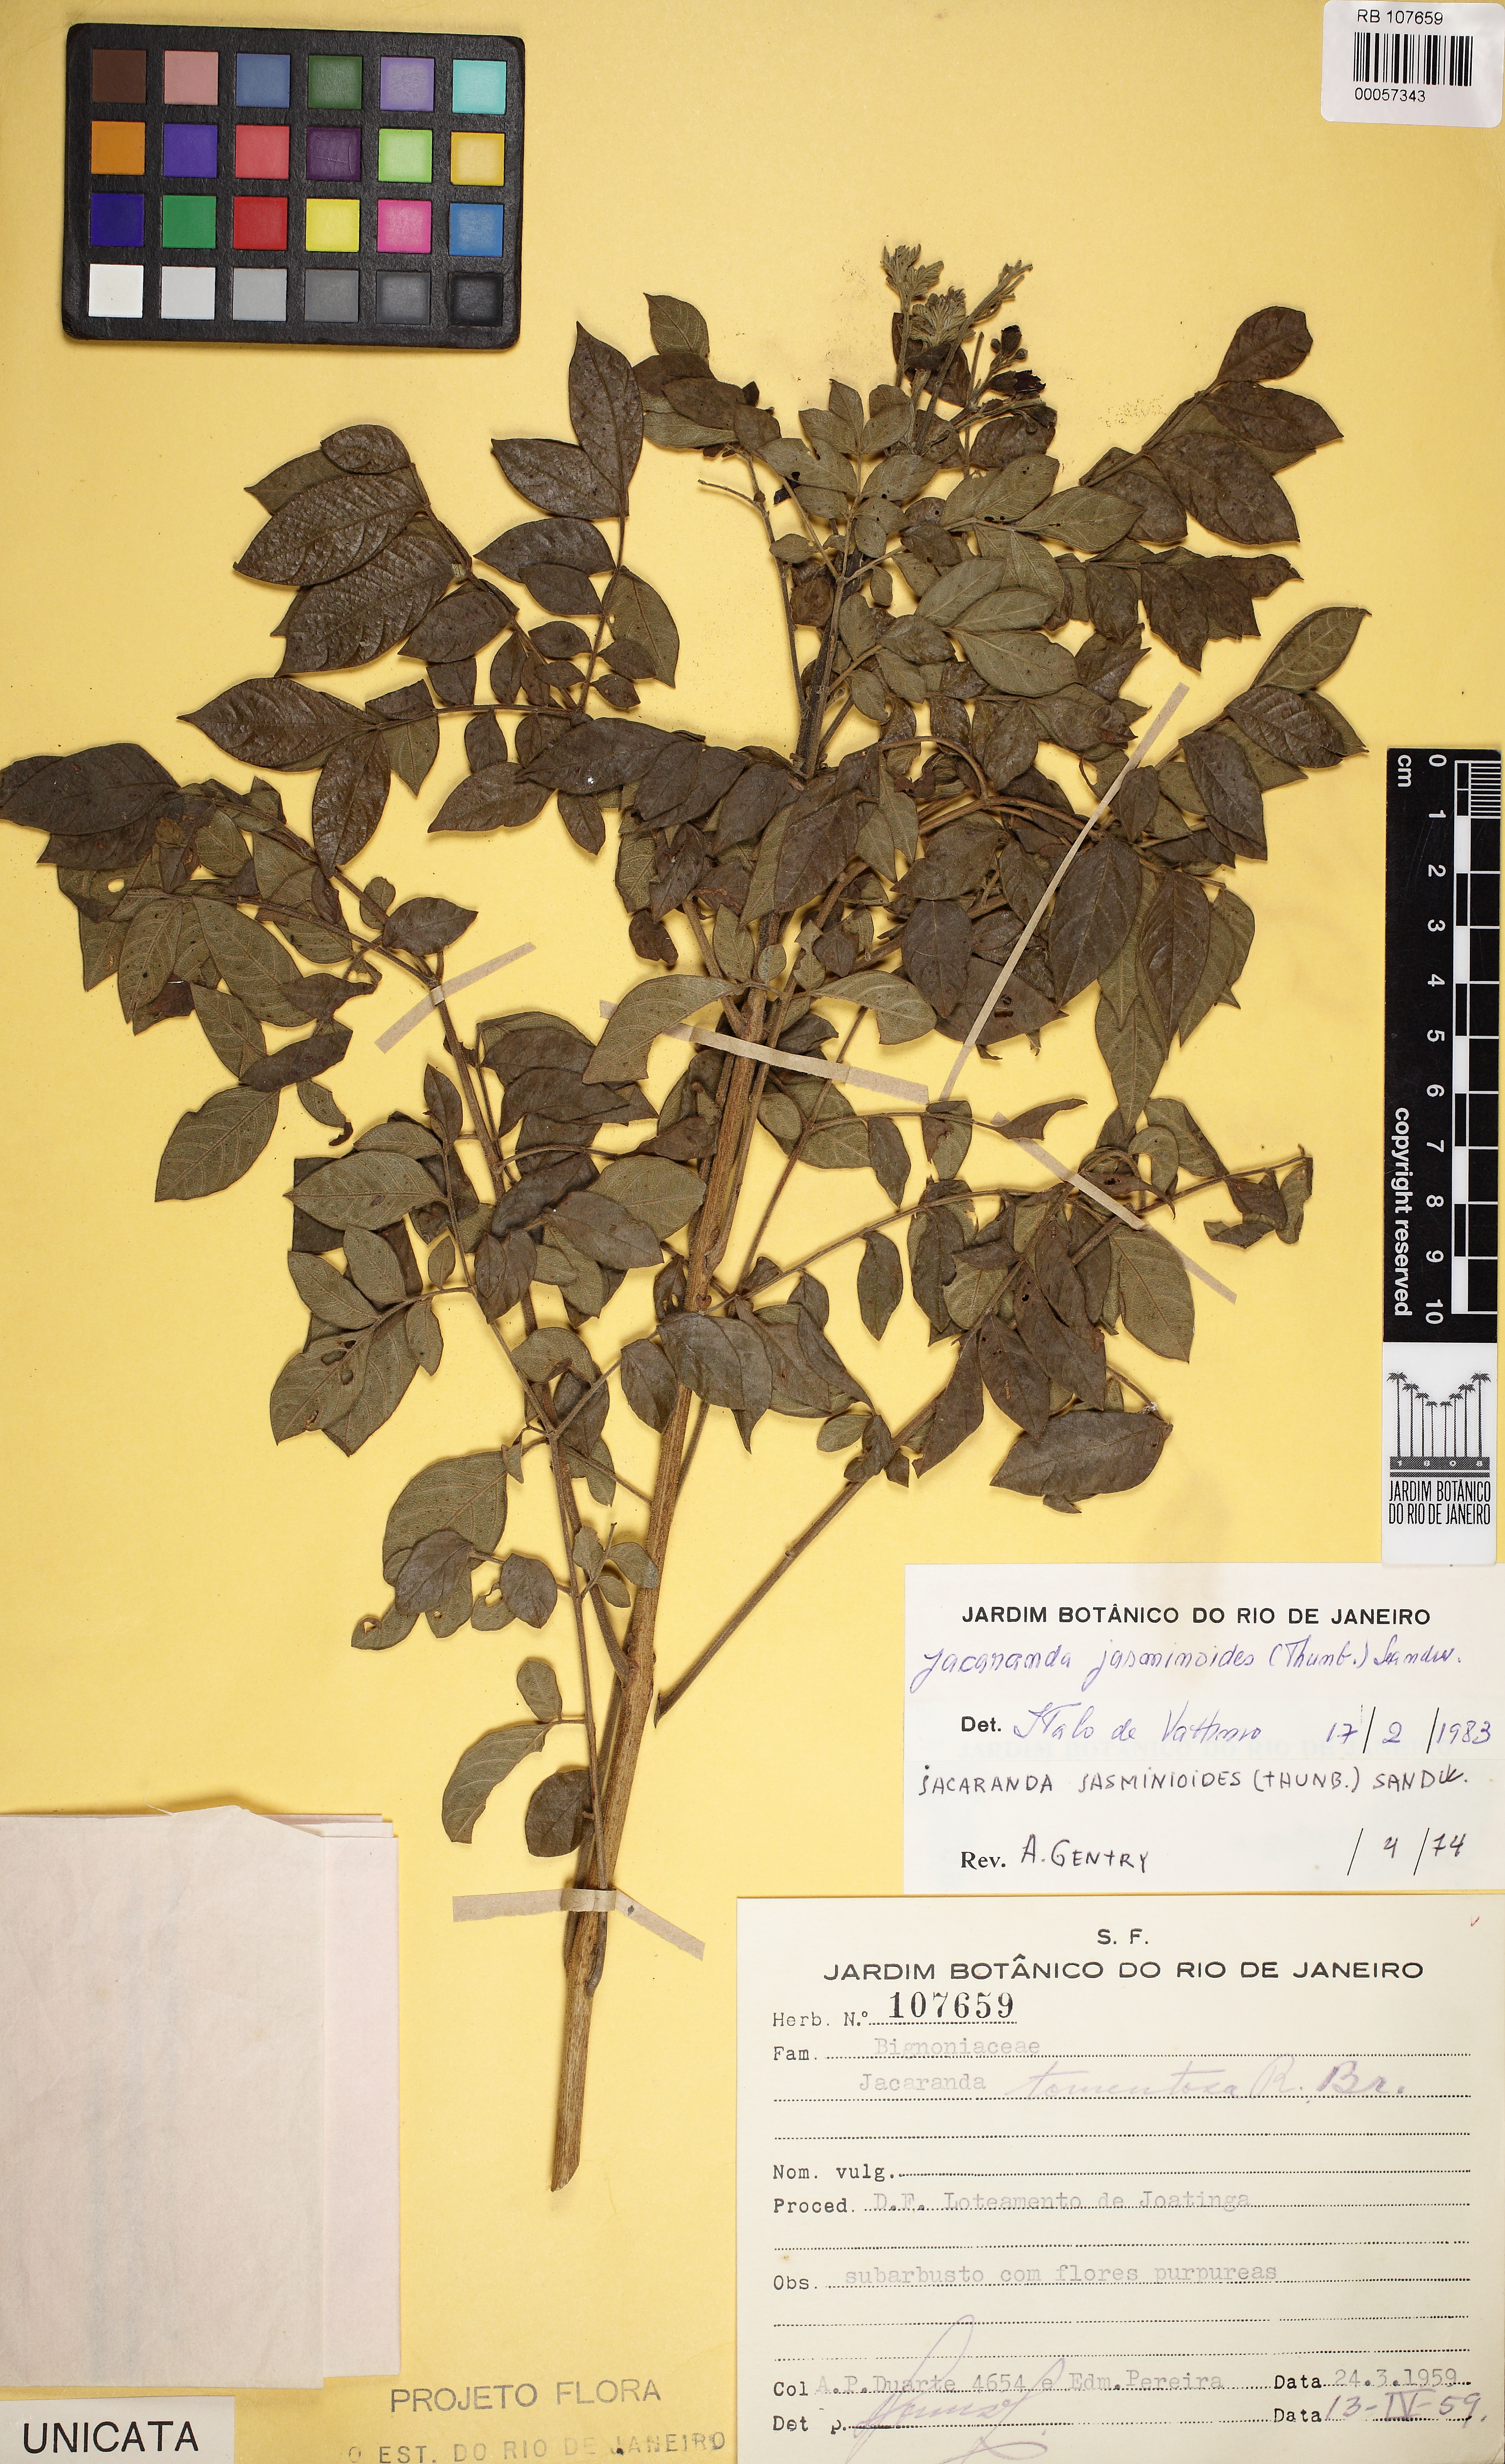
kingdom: Plantae
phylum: Tracheophyta
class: Magnoliopsida
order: Lamiales
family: Bignoniaceae
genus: Jacaranda
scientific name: Jacaranda jasminoides
